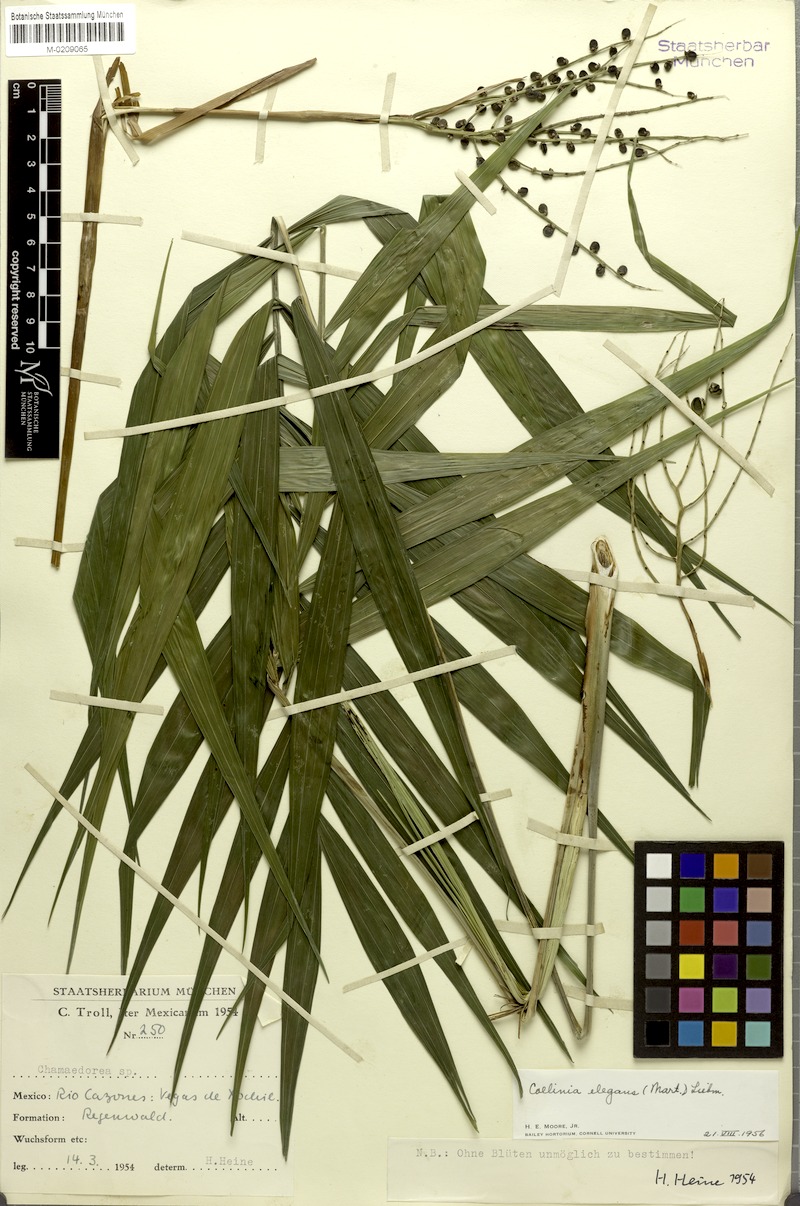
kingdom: Plantae
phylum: Tracheophyta
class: Liliopsida
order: Arecales
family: Arecaceae
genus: Chamaedorea
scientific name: Chamaedorea elegans
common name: Good-luck palm
